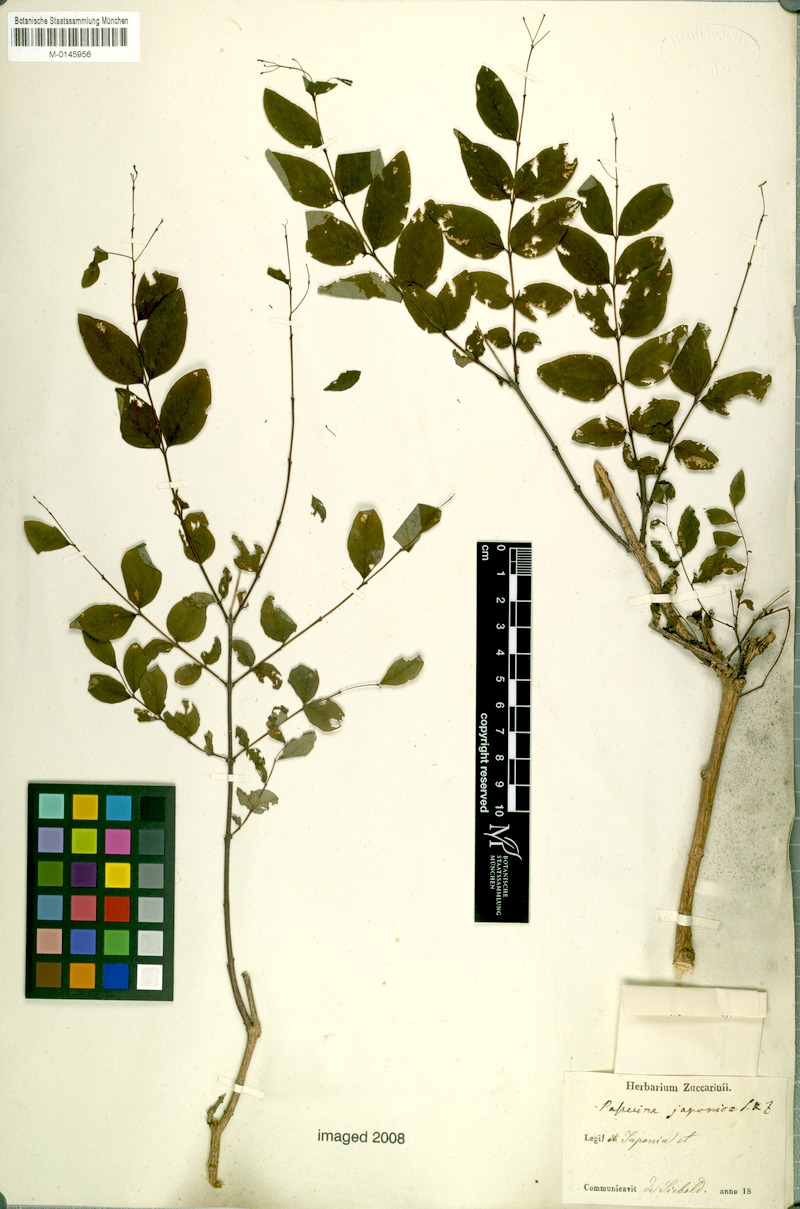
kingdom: Plantae
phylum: Tracheophyta
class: Magnoliopsida
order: Malvales
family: Thymelaeaceae
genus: Wikstroemia
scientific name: Wikstroemia trichotoma
